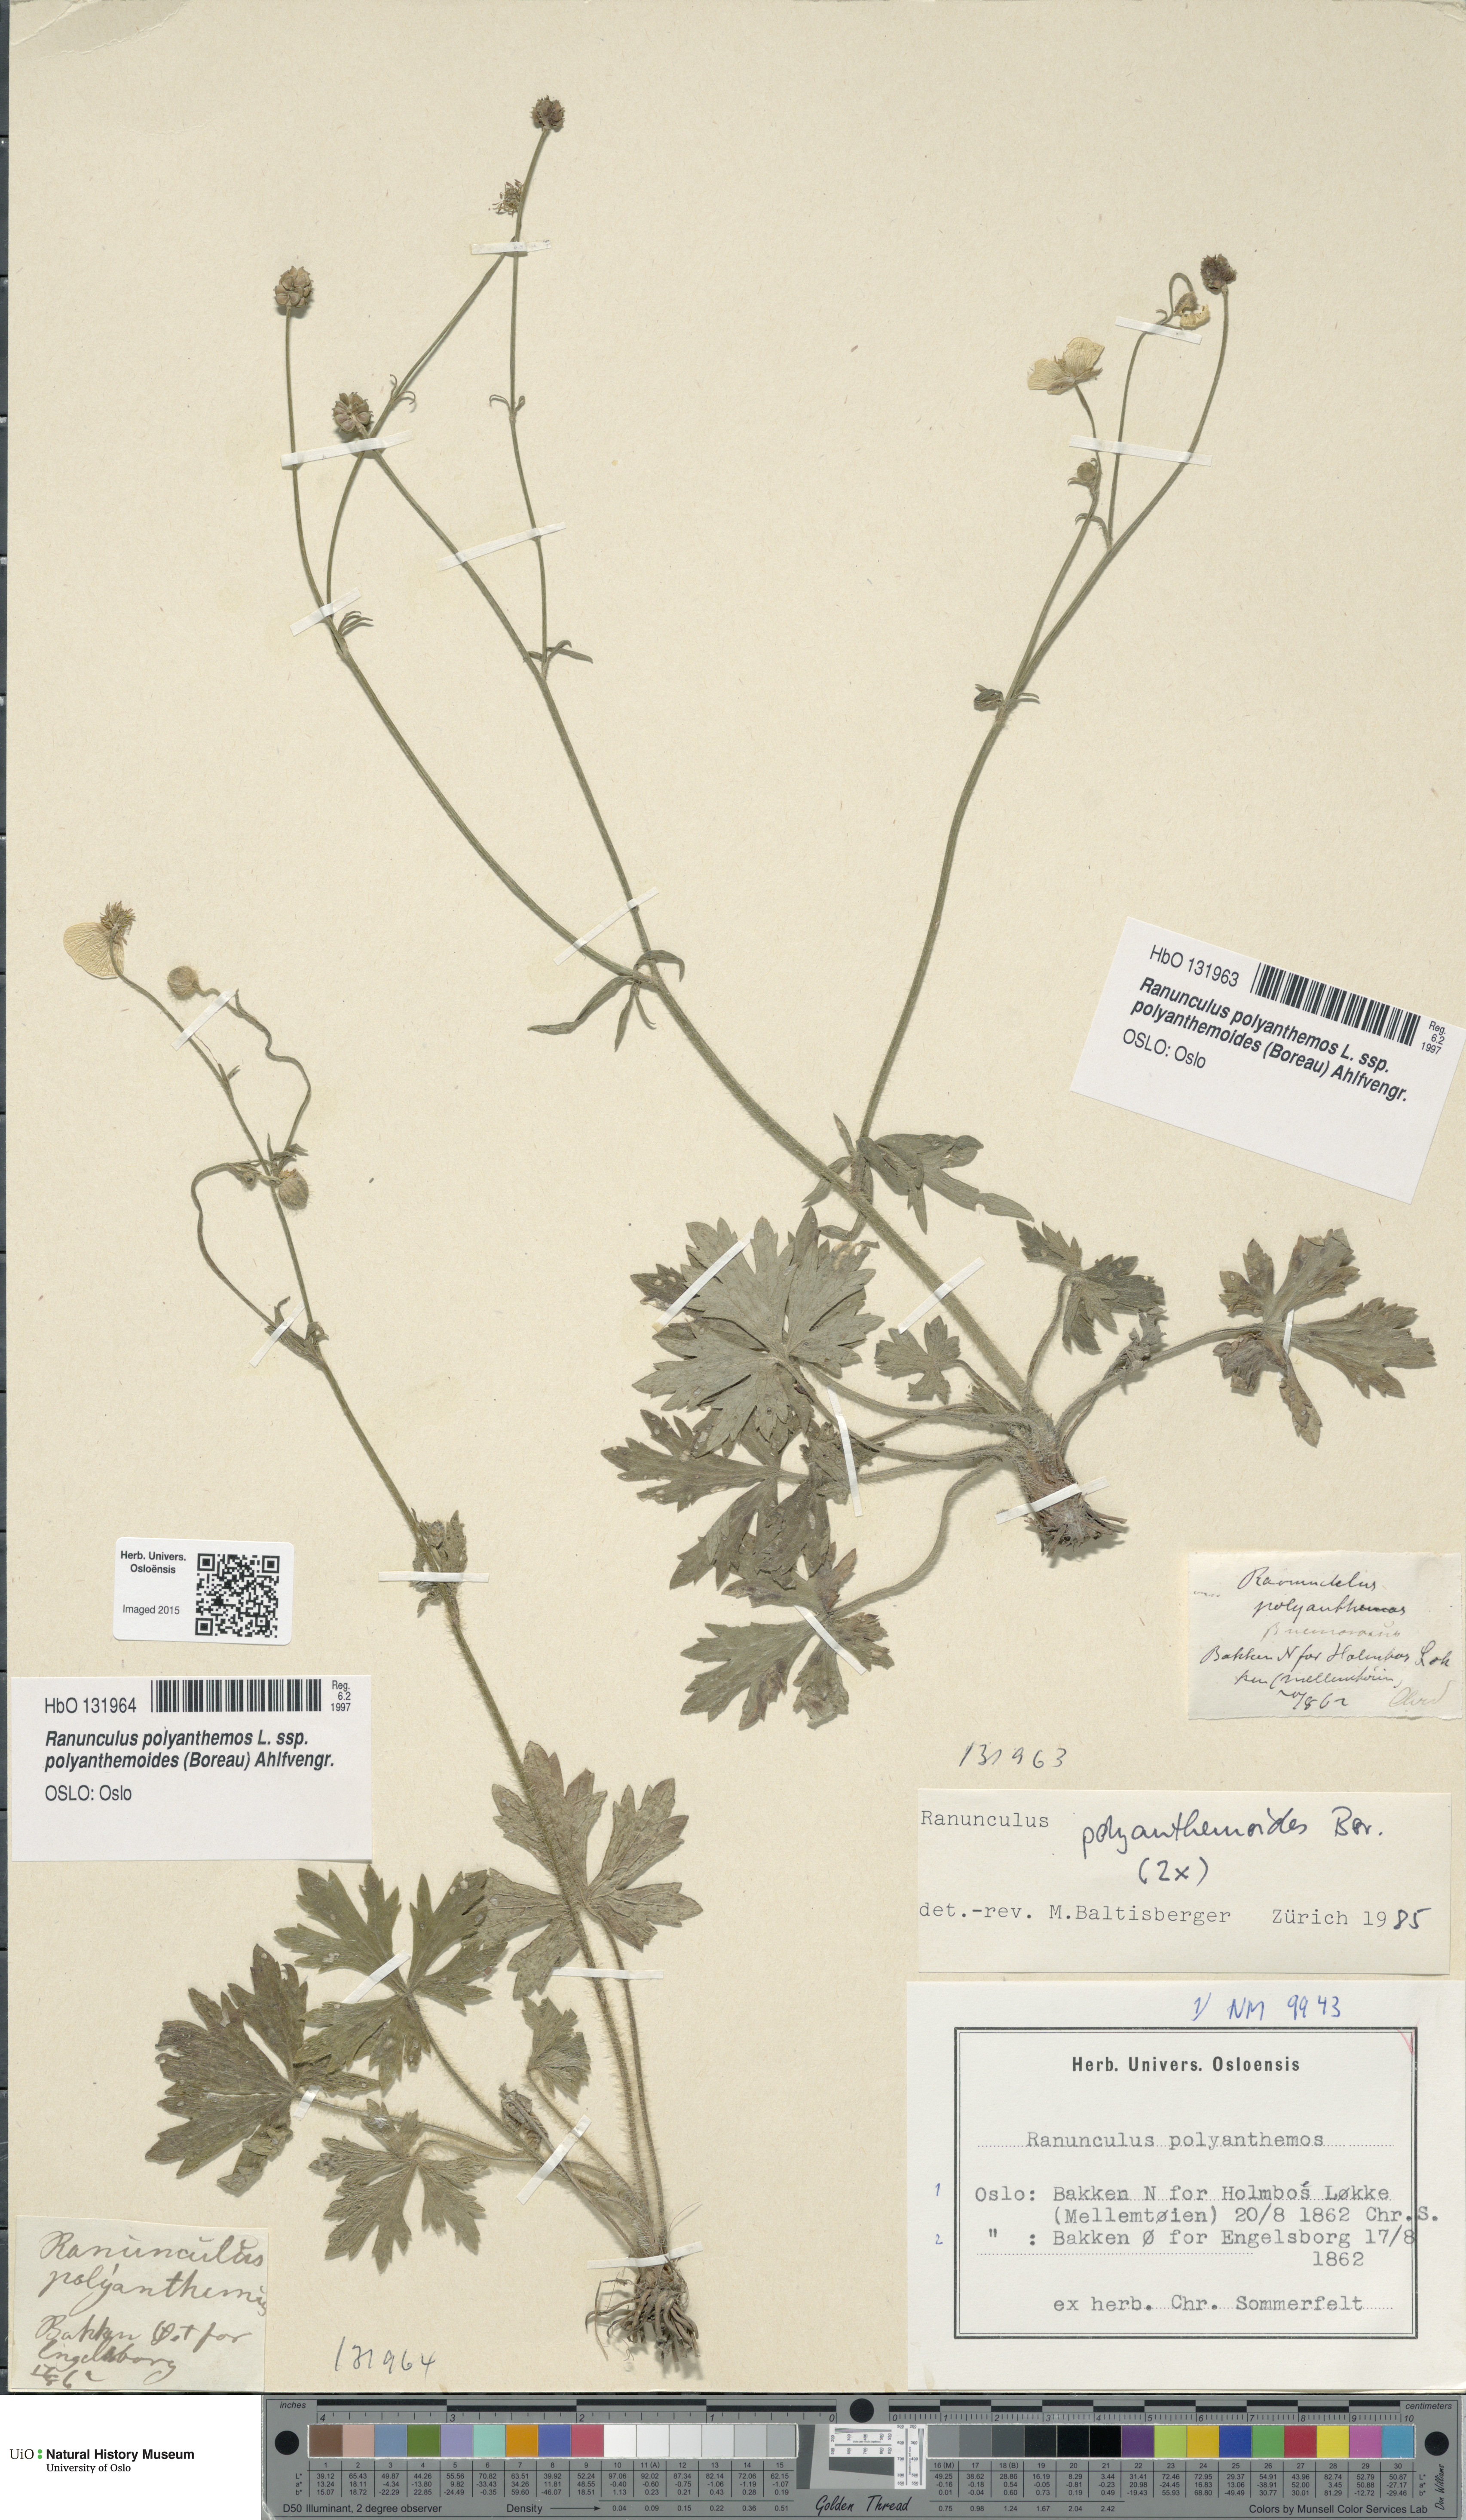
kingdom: Plantae
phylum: Tracheophyta
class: Magnoliopsida
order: Ranunculales
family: Ranunculaceae
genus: Ranunculus
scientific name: Ranunculus polyanthemos
